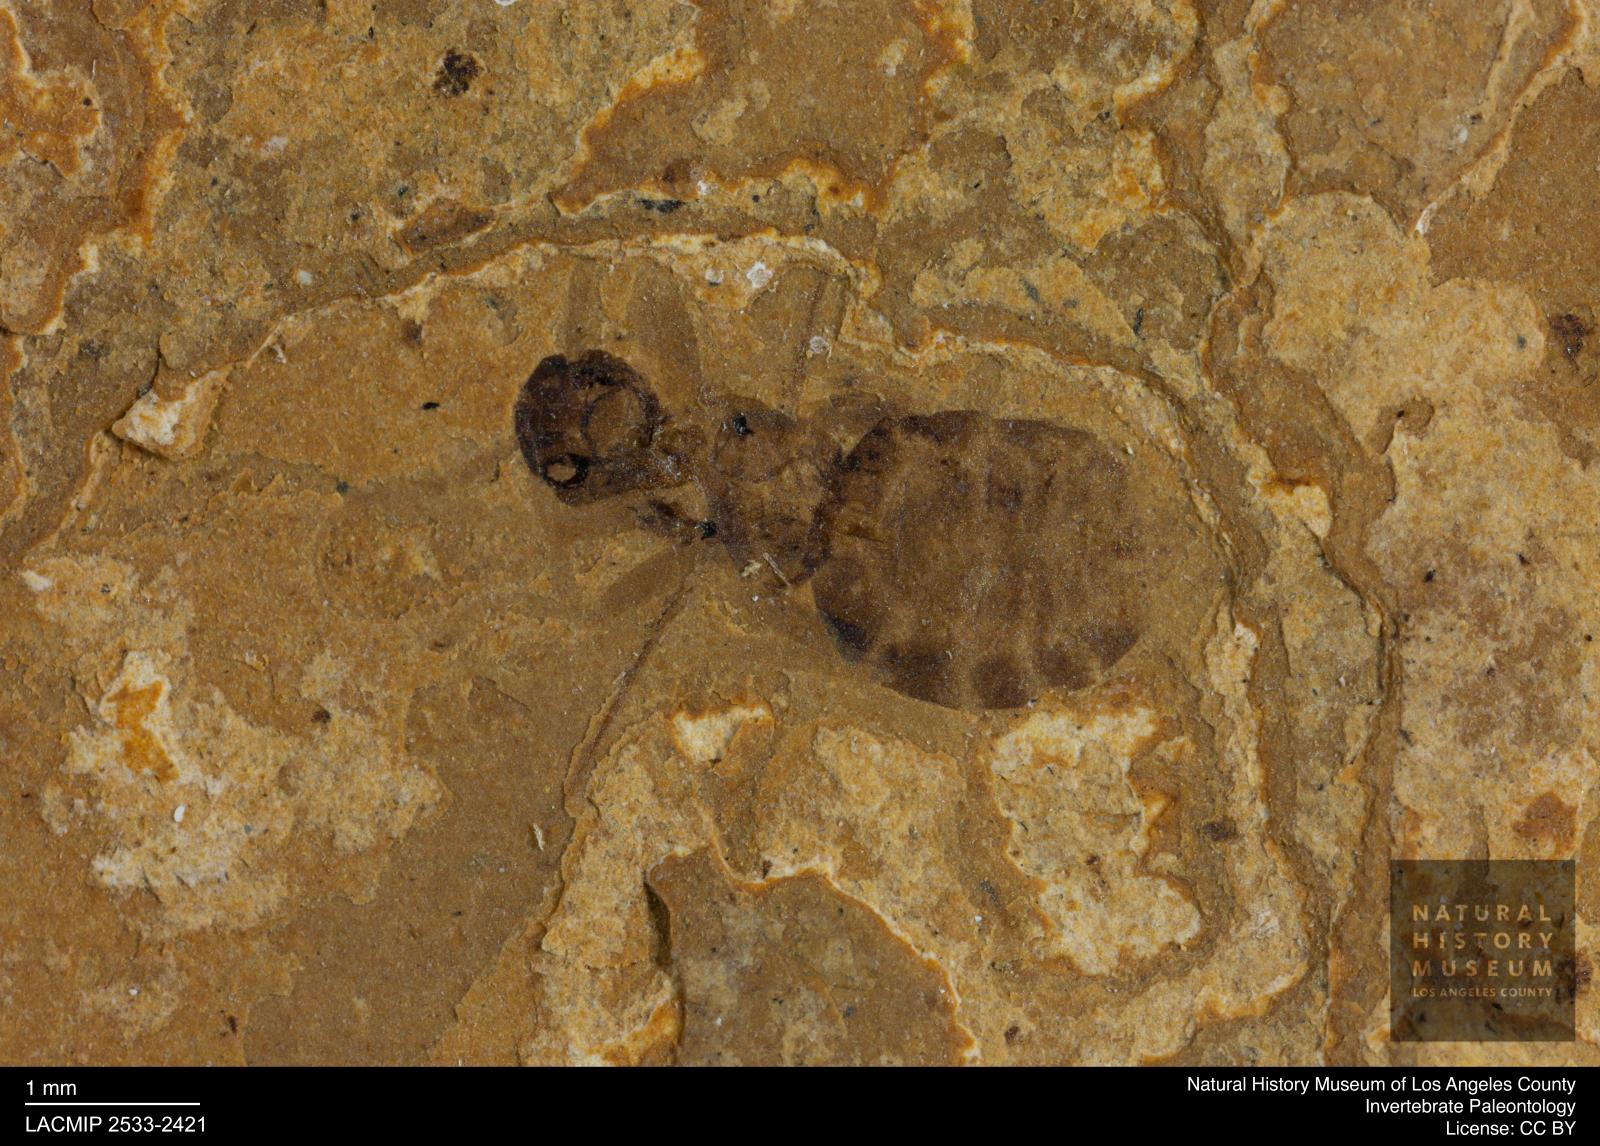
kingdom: Animalia
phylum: Arthropoda
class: Insecta
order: Hymenoptera
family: Formicidae
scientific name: Formicidae
